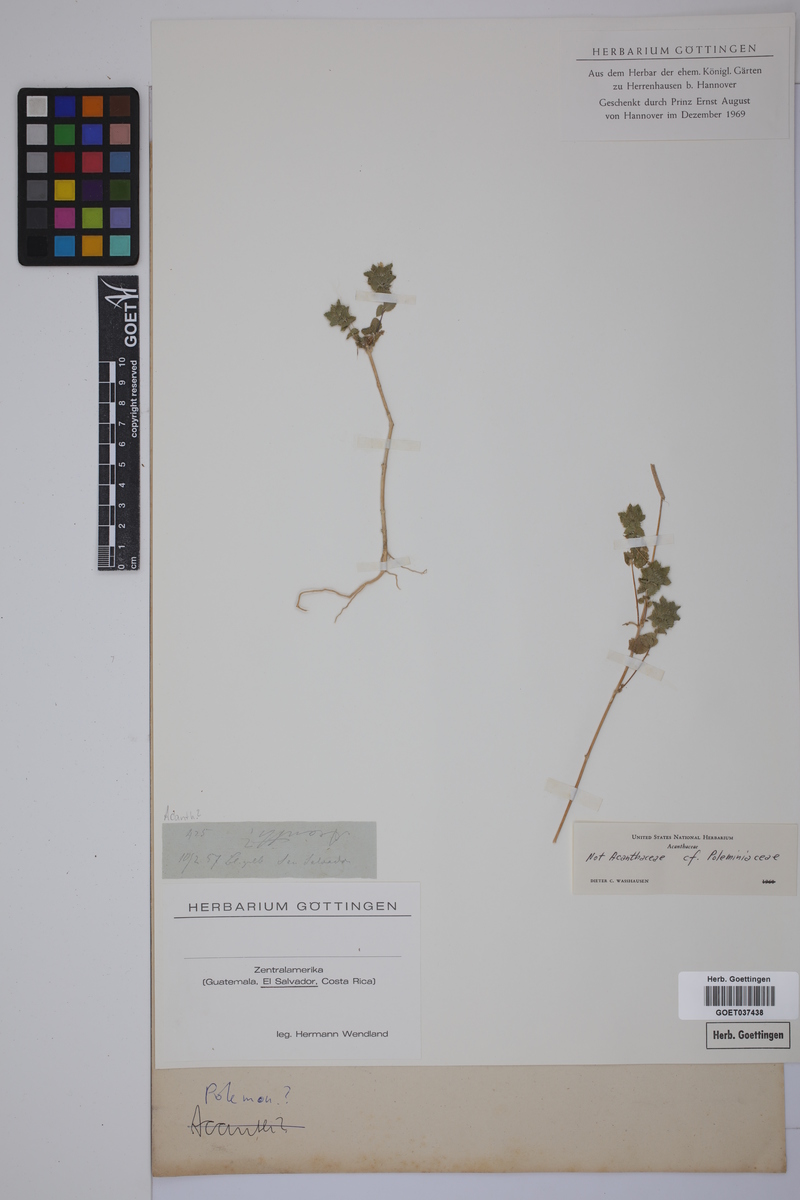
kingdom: Plantae
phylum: Tracheophyta
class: Magnoliopsida
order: Ericales
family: Polemoniaceae
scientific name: Polemoniaceae
